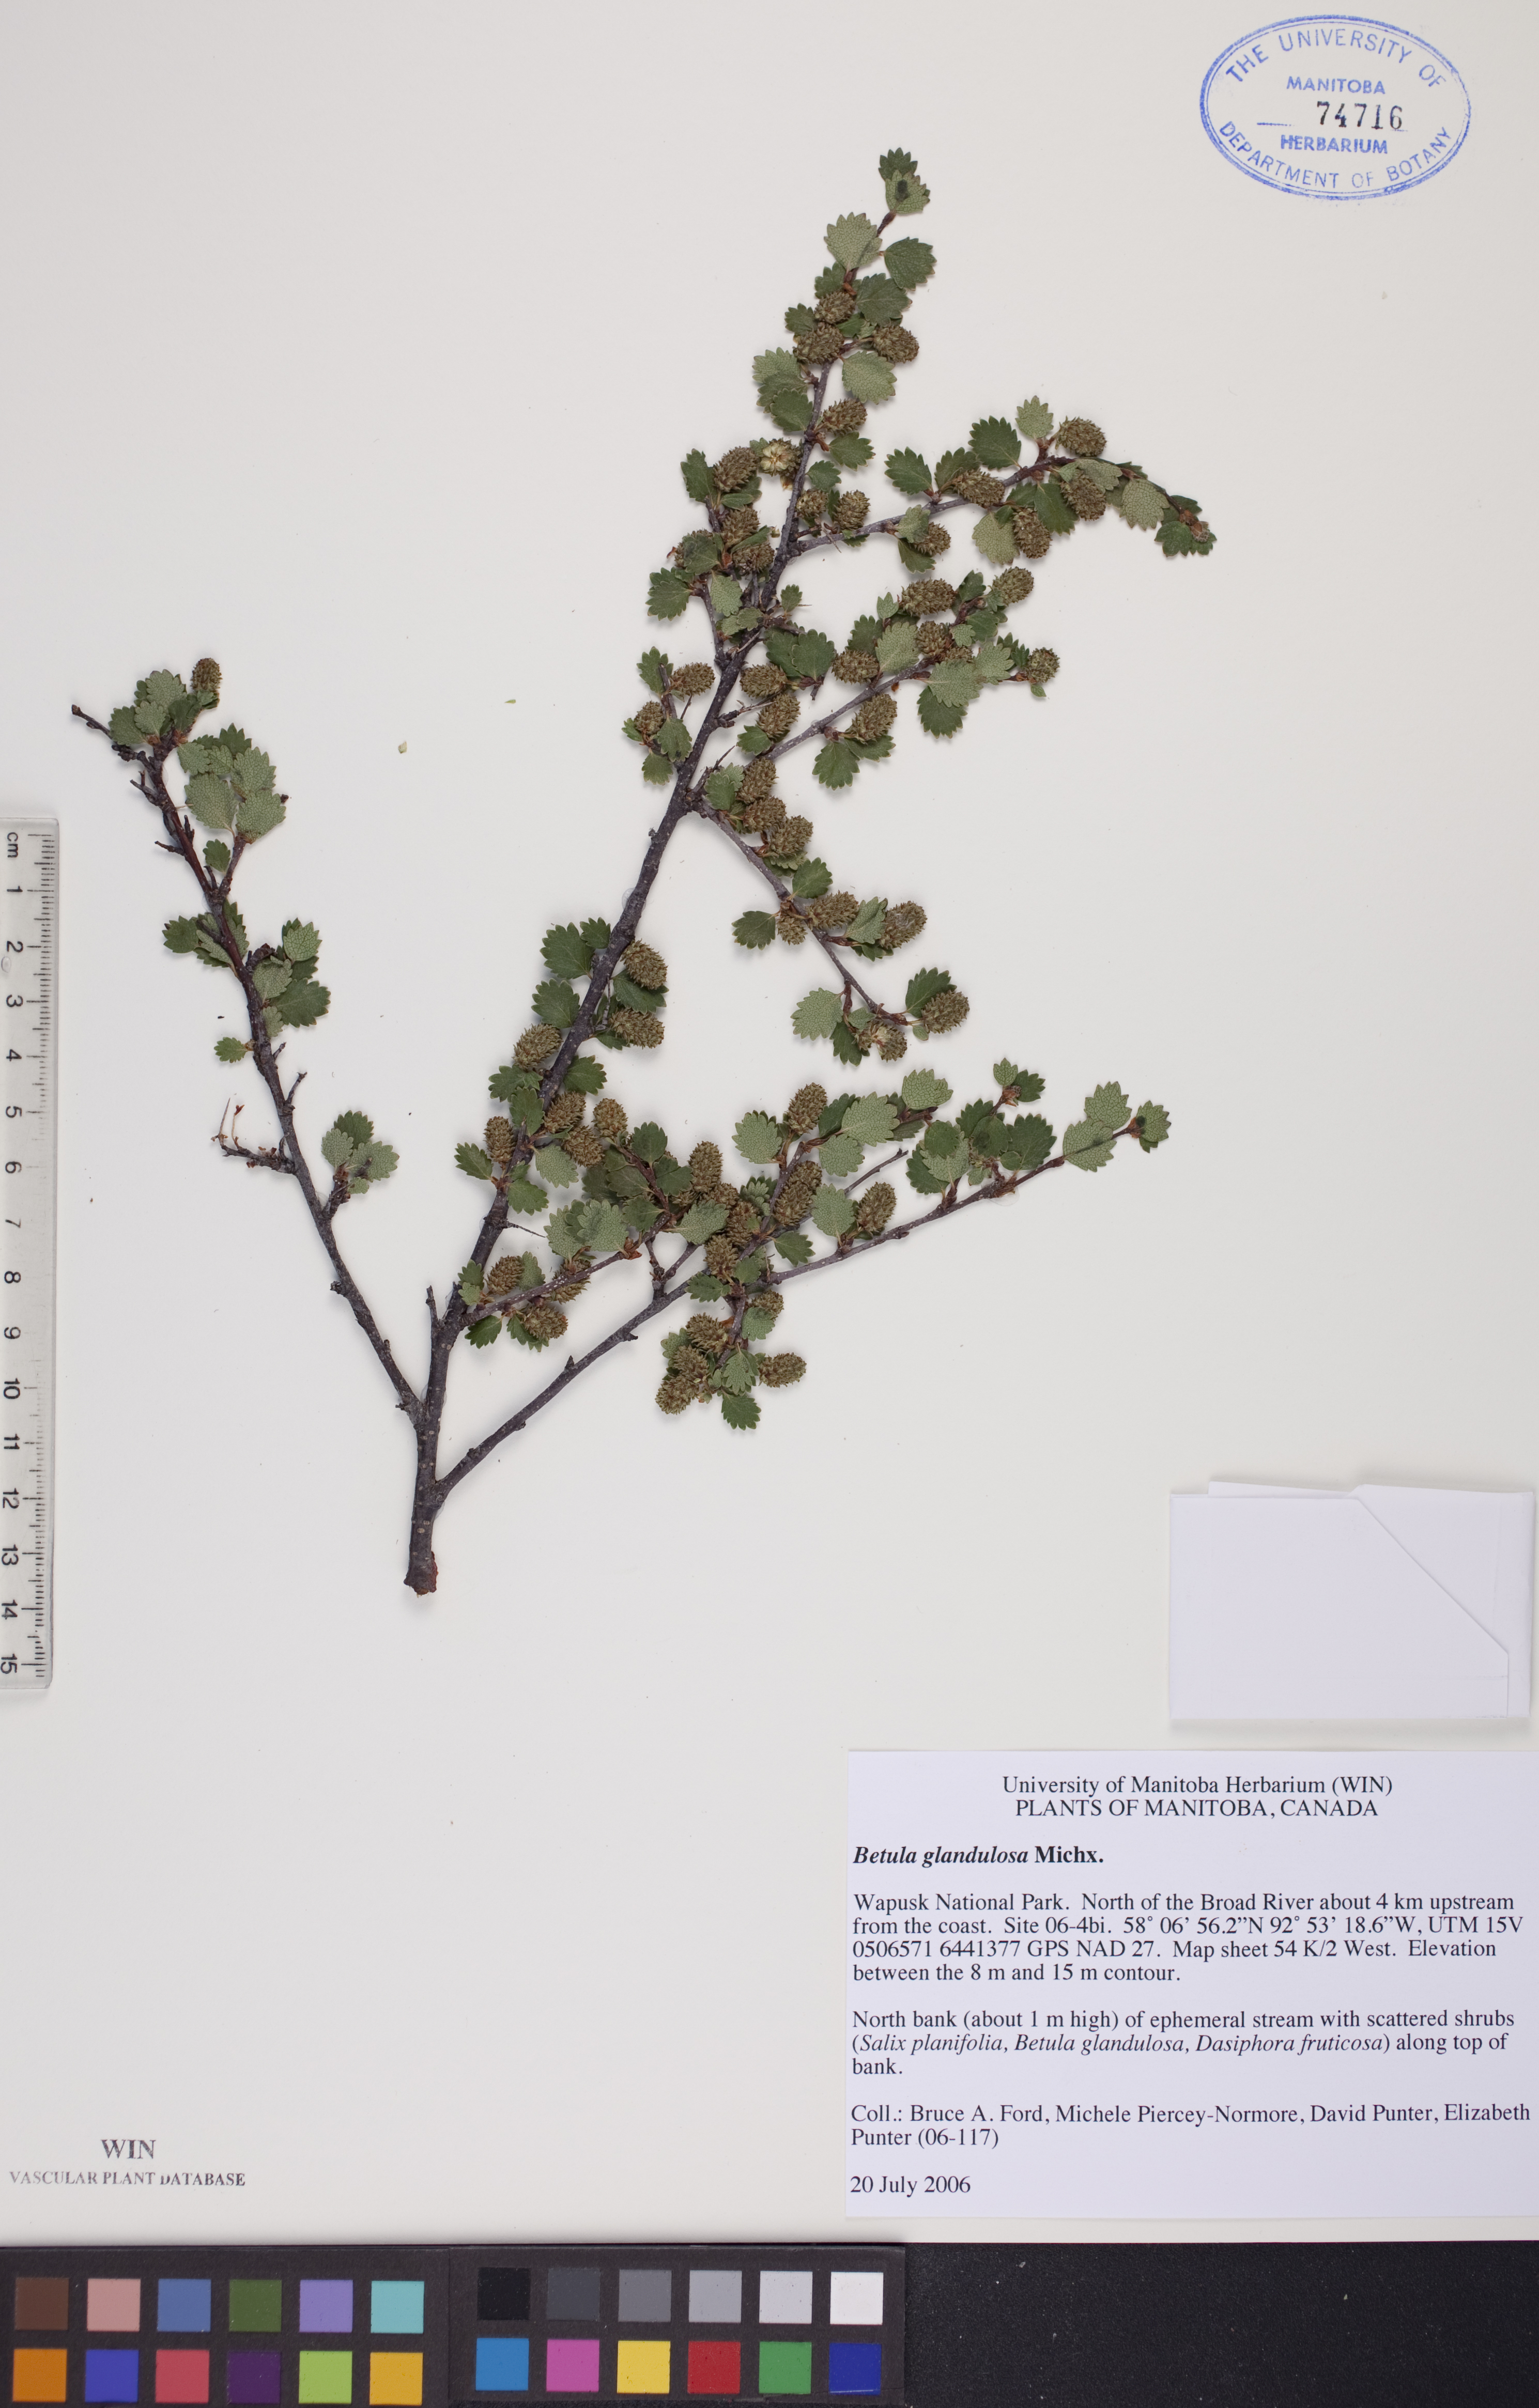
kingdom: Plantae
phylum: Tracheophyta
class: Magnoliopsida
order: Fagales
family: Betulaceae
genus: Betula
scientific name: Betula glandulosa
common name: Dwarf birch
